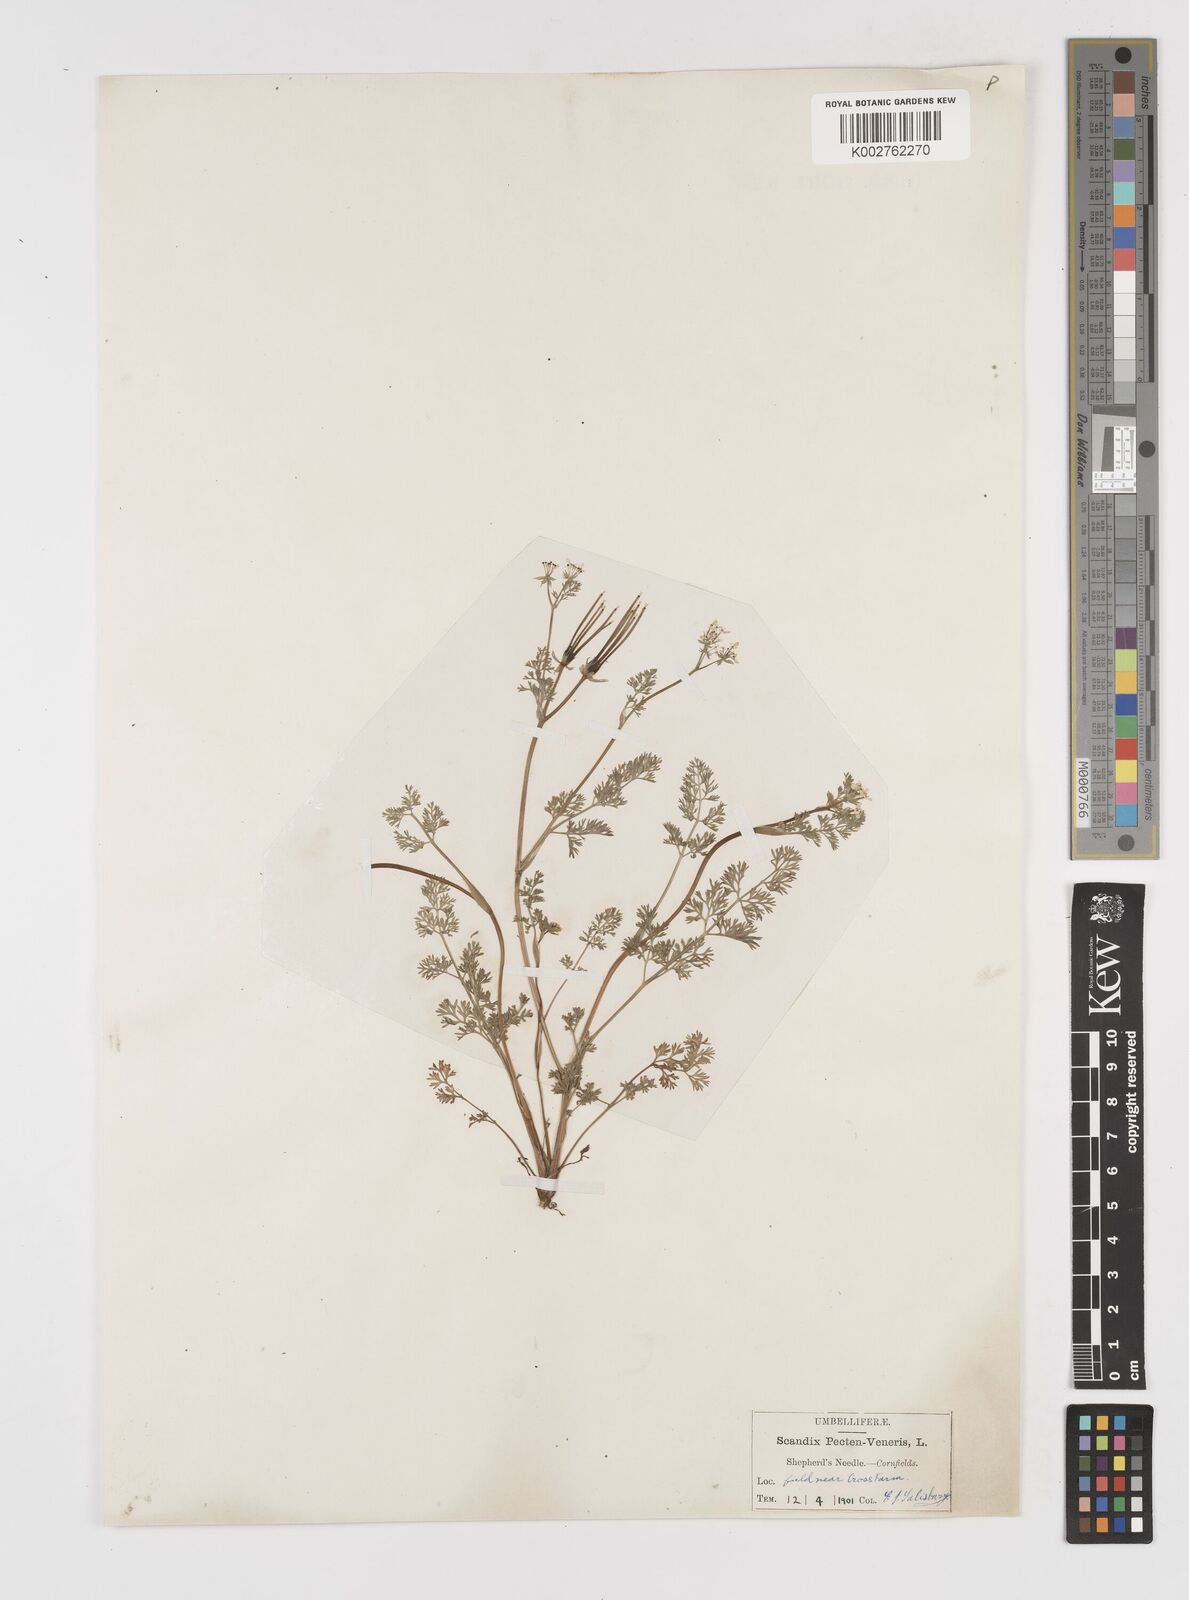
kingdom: Plantae
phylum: Tracheophyta
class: Magnoliopsida
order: Apiales
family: Apiaceae
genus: Scandix
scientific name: Scandix pecten-veneris
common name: Shepherd's-needle
